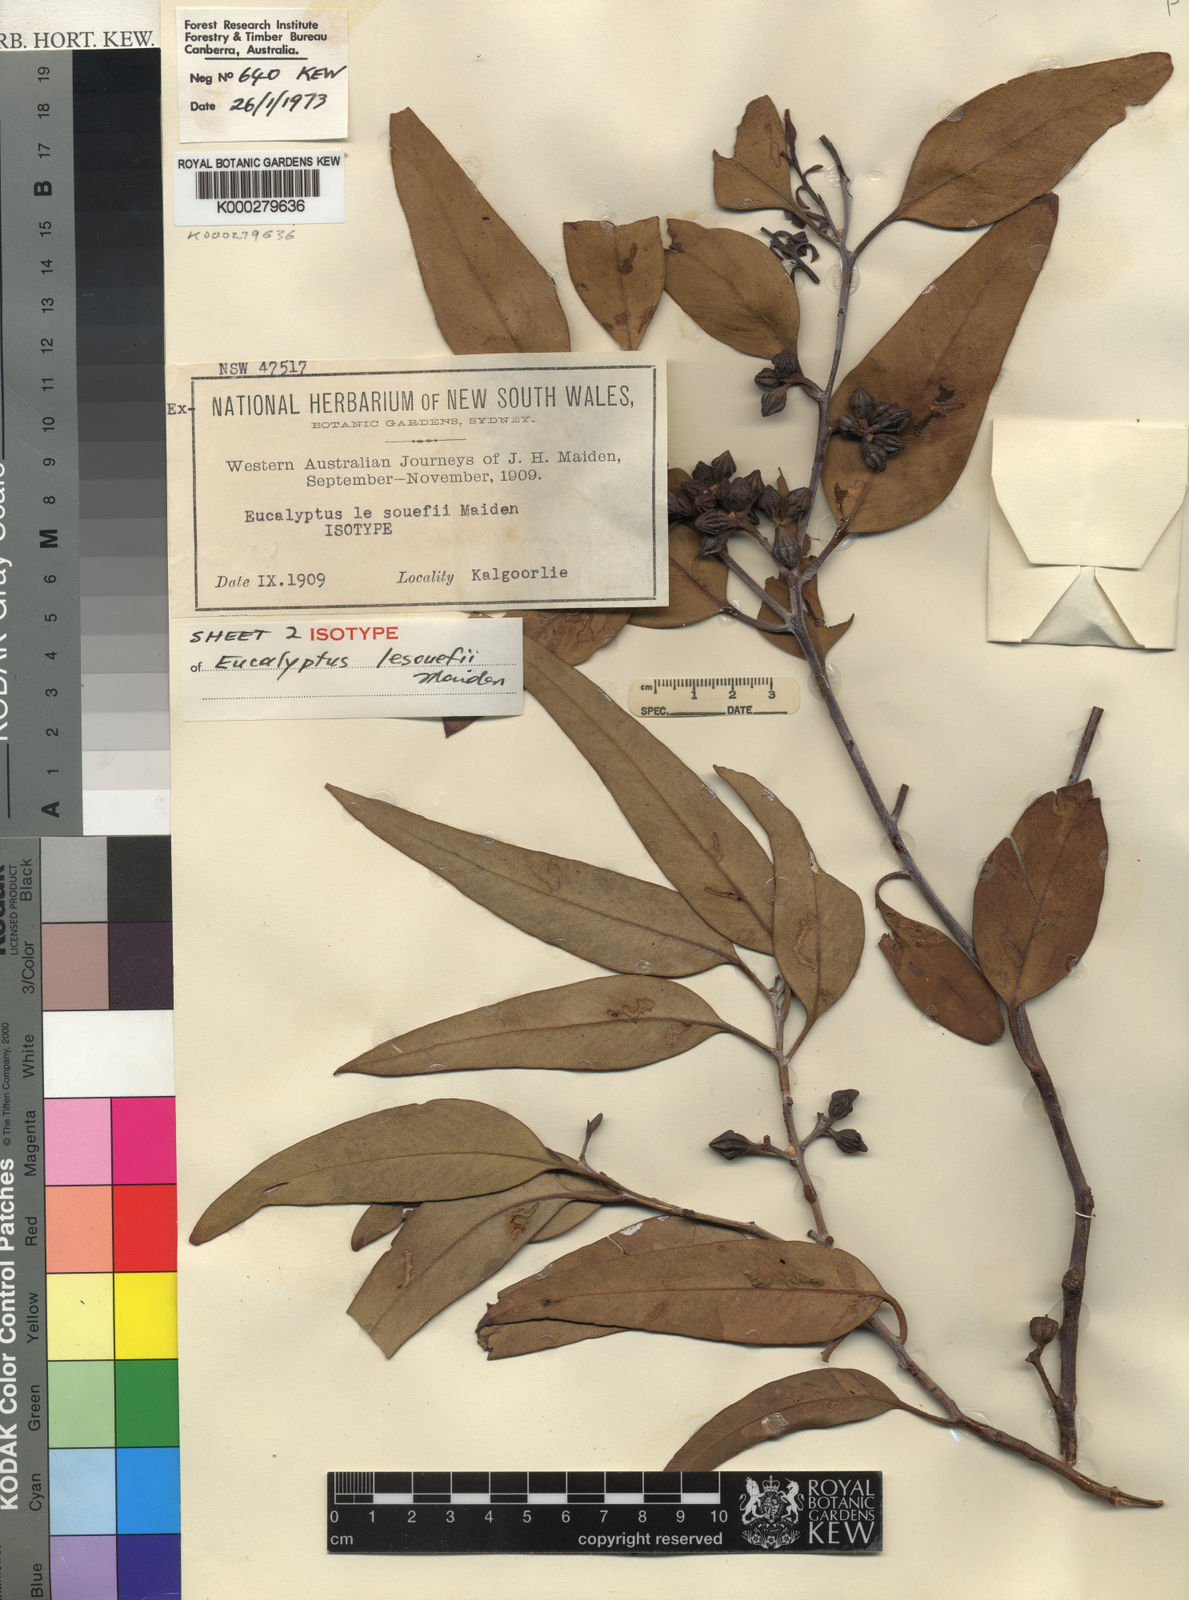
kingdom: Plantae
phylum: Tracheophyta
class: Magnoliopsida
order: Myrtales
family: Myrtaceae
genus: Eucalyptus
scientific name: Eucalyptus lesouefii
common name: Goldfields blackbutt
